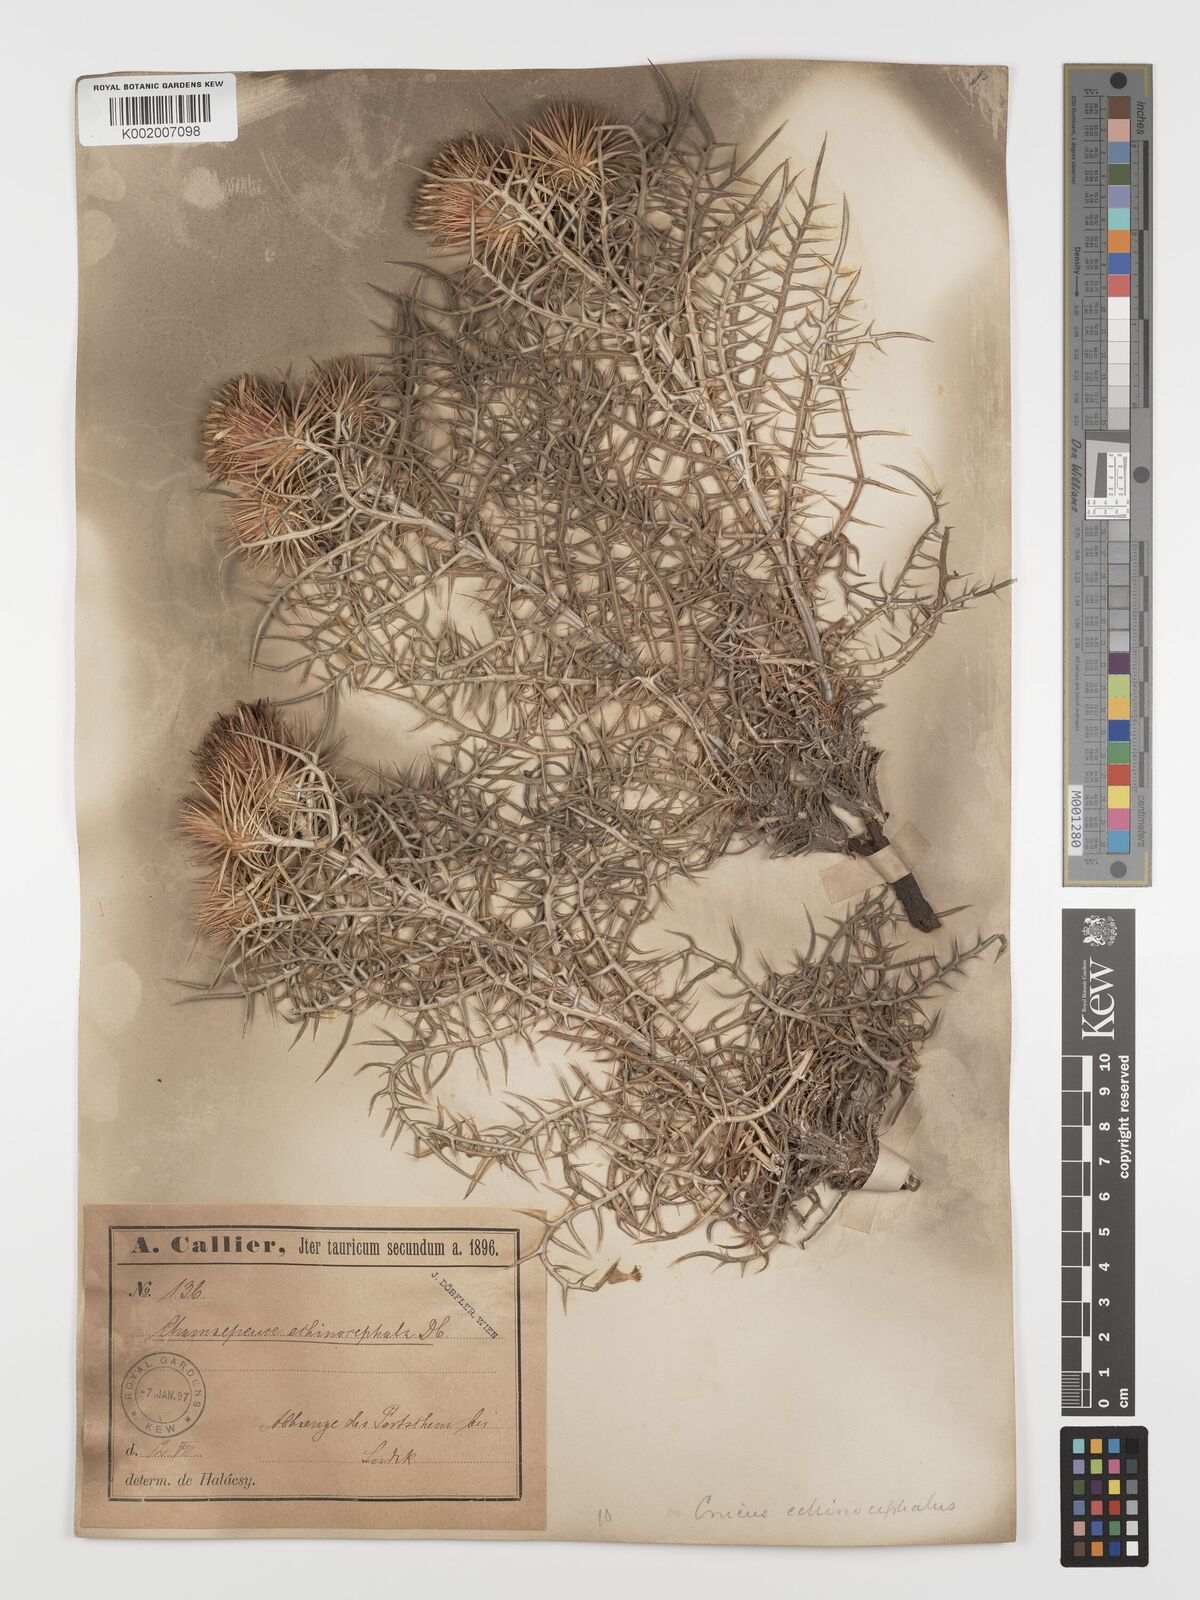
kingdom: Plantae
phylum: Tracheophyta
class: Magnoliopsida
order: Asterales
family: Asteraceae
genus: Ptilostemon
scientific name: Ptilostemon echinocephalus
